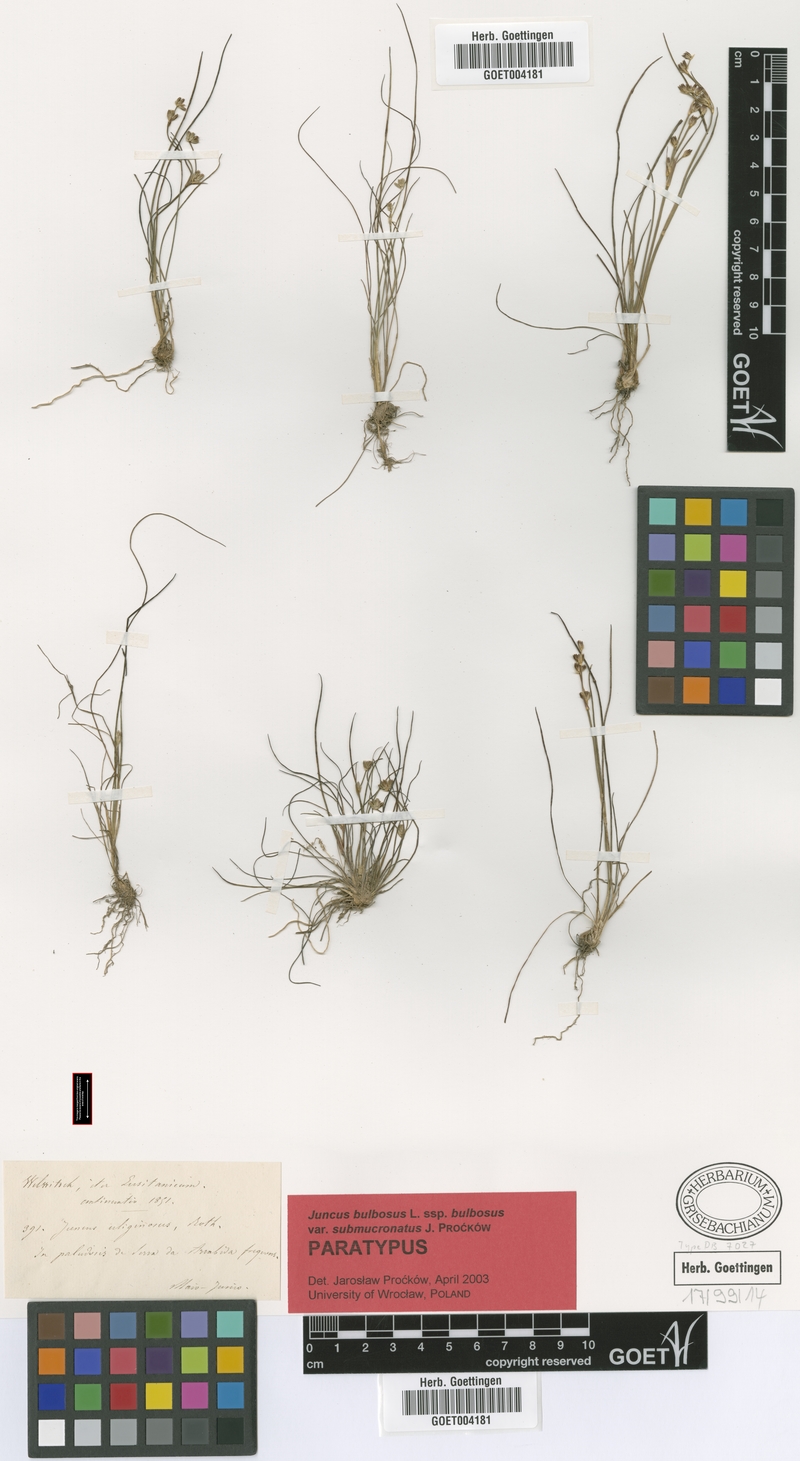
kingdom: Plantae
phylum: Tracheophyta
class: Liliopsida
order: Poales
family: Juncaceae
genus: Juncus
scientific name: Juncus bulbosus
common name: Bulbous rush
